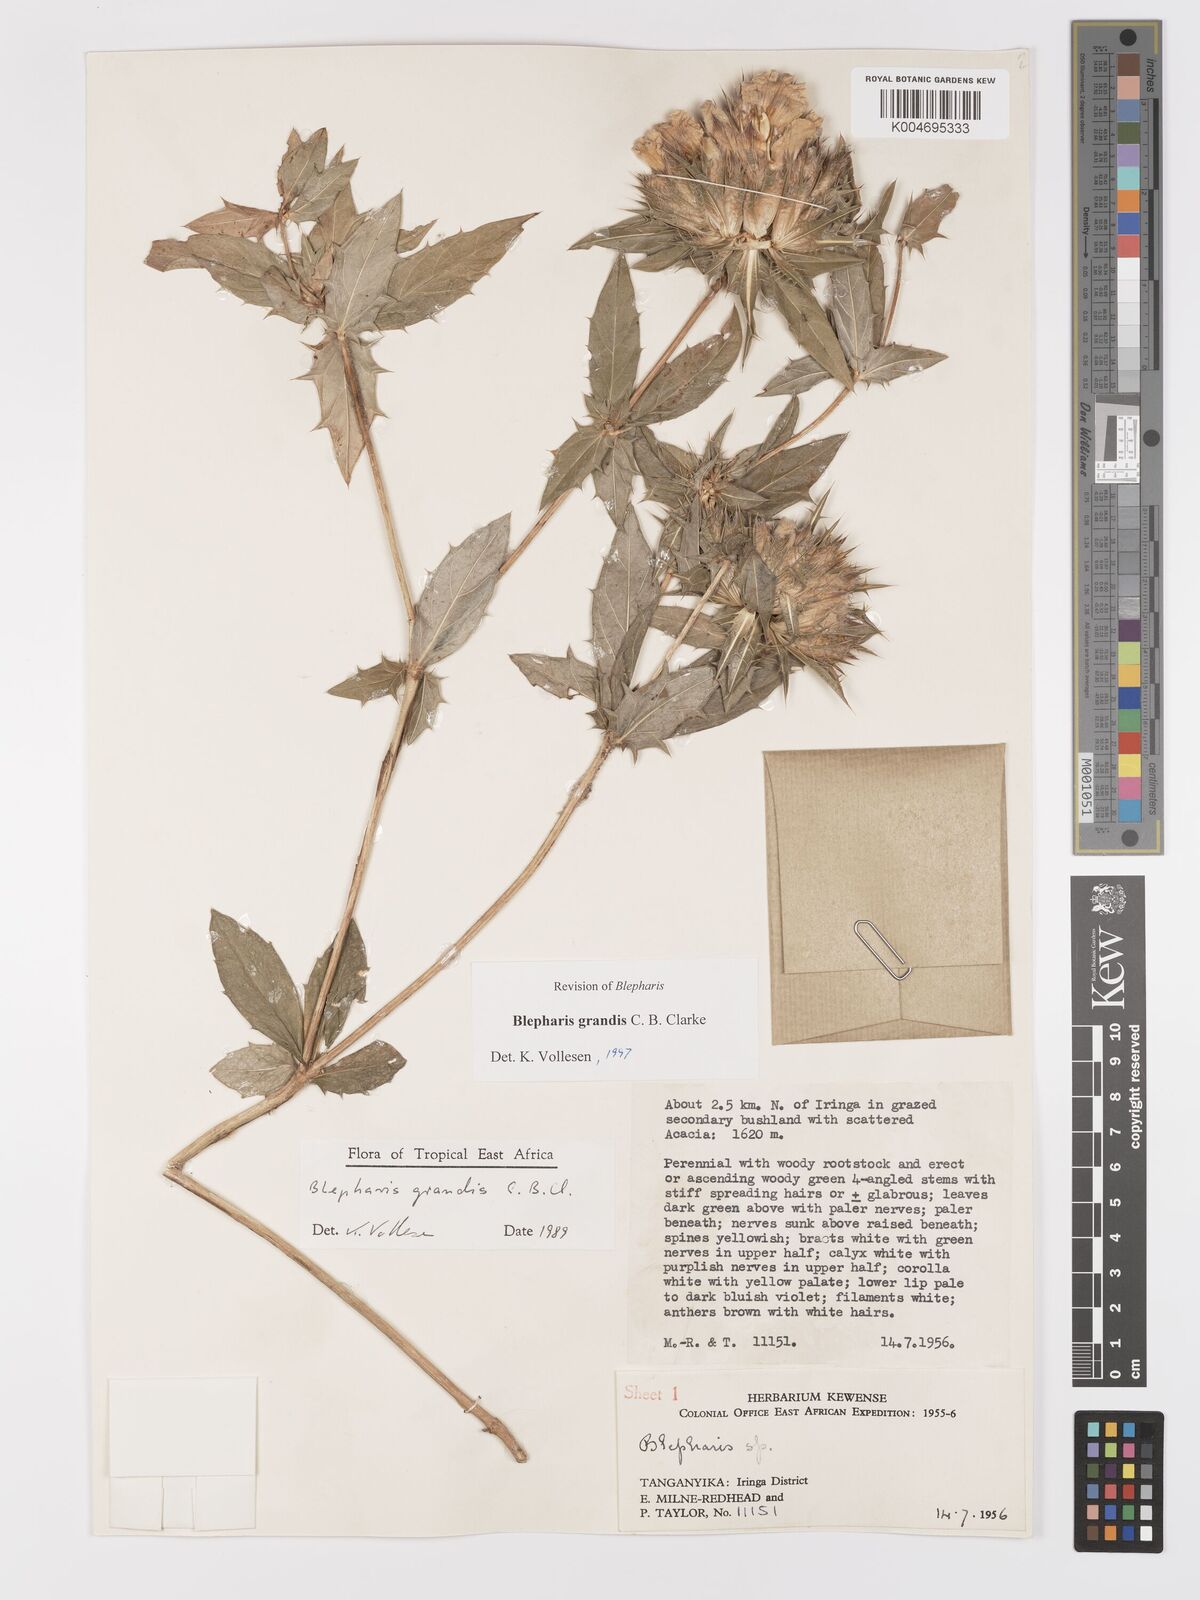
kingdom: Plantae
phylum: Tracheophyta
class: Magnoliopsida
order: Lamiales
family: Acanthaceae
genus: Blepharis
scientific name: Blepharis grandis
